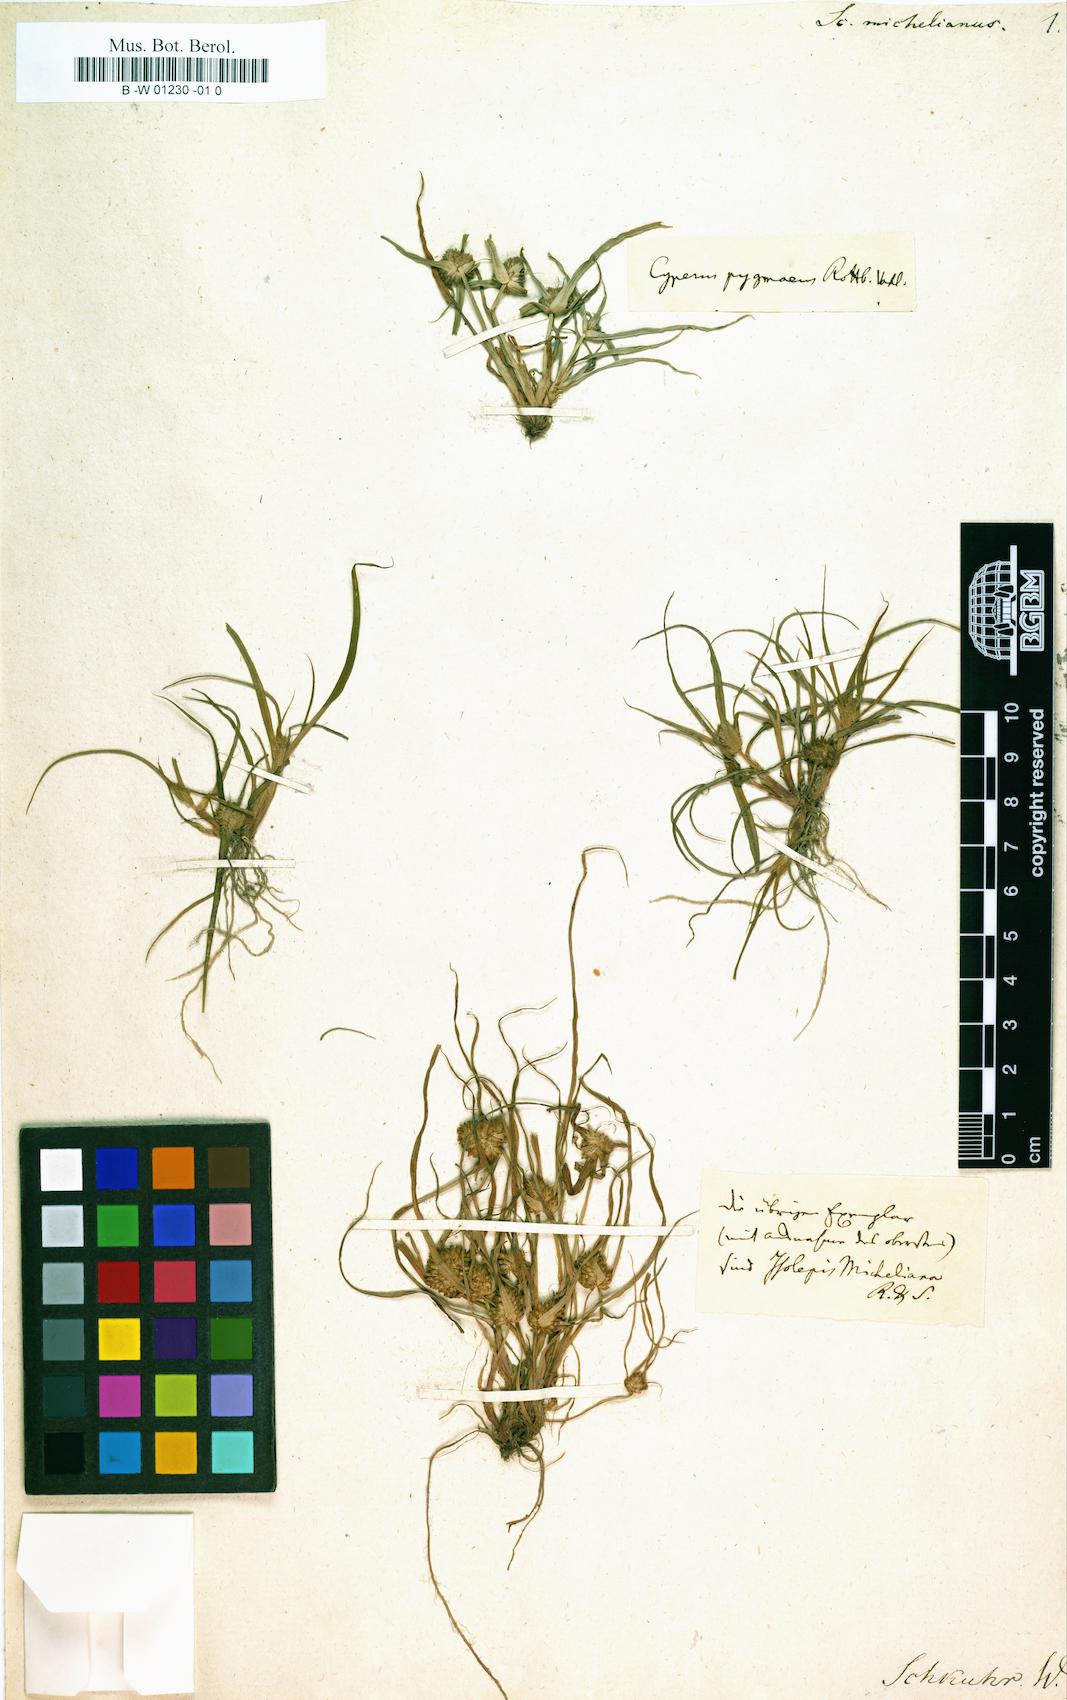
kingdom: Plantae
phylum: Tracheophyta
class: Liliopsida
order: Poales
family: Cyperaceae
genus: Scirpus
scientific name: Scirpus michelianus
